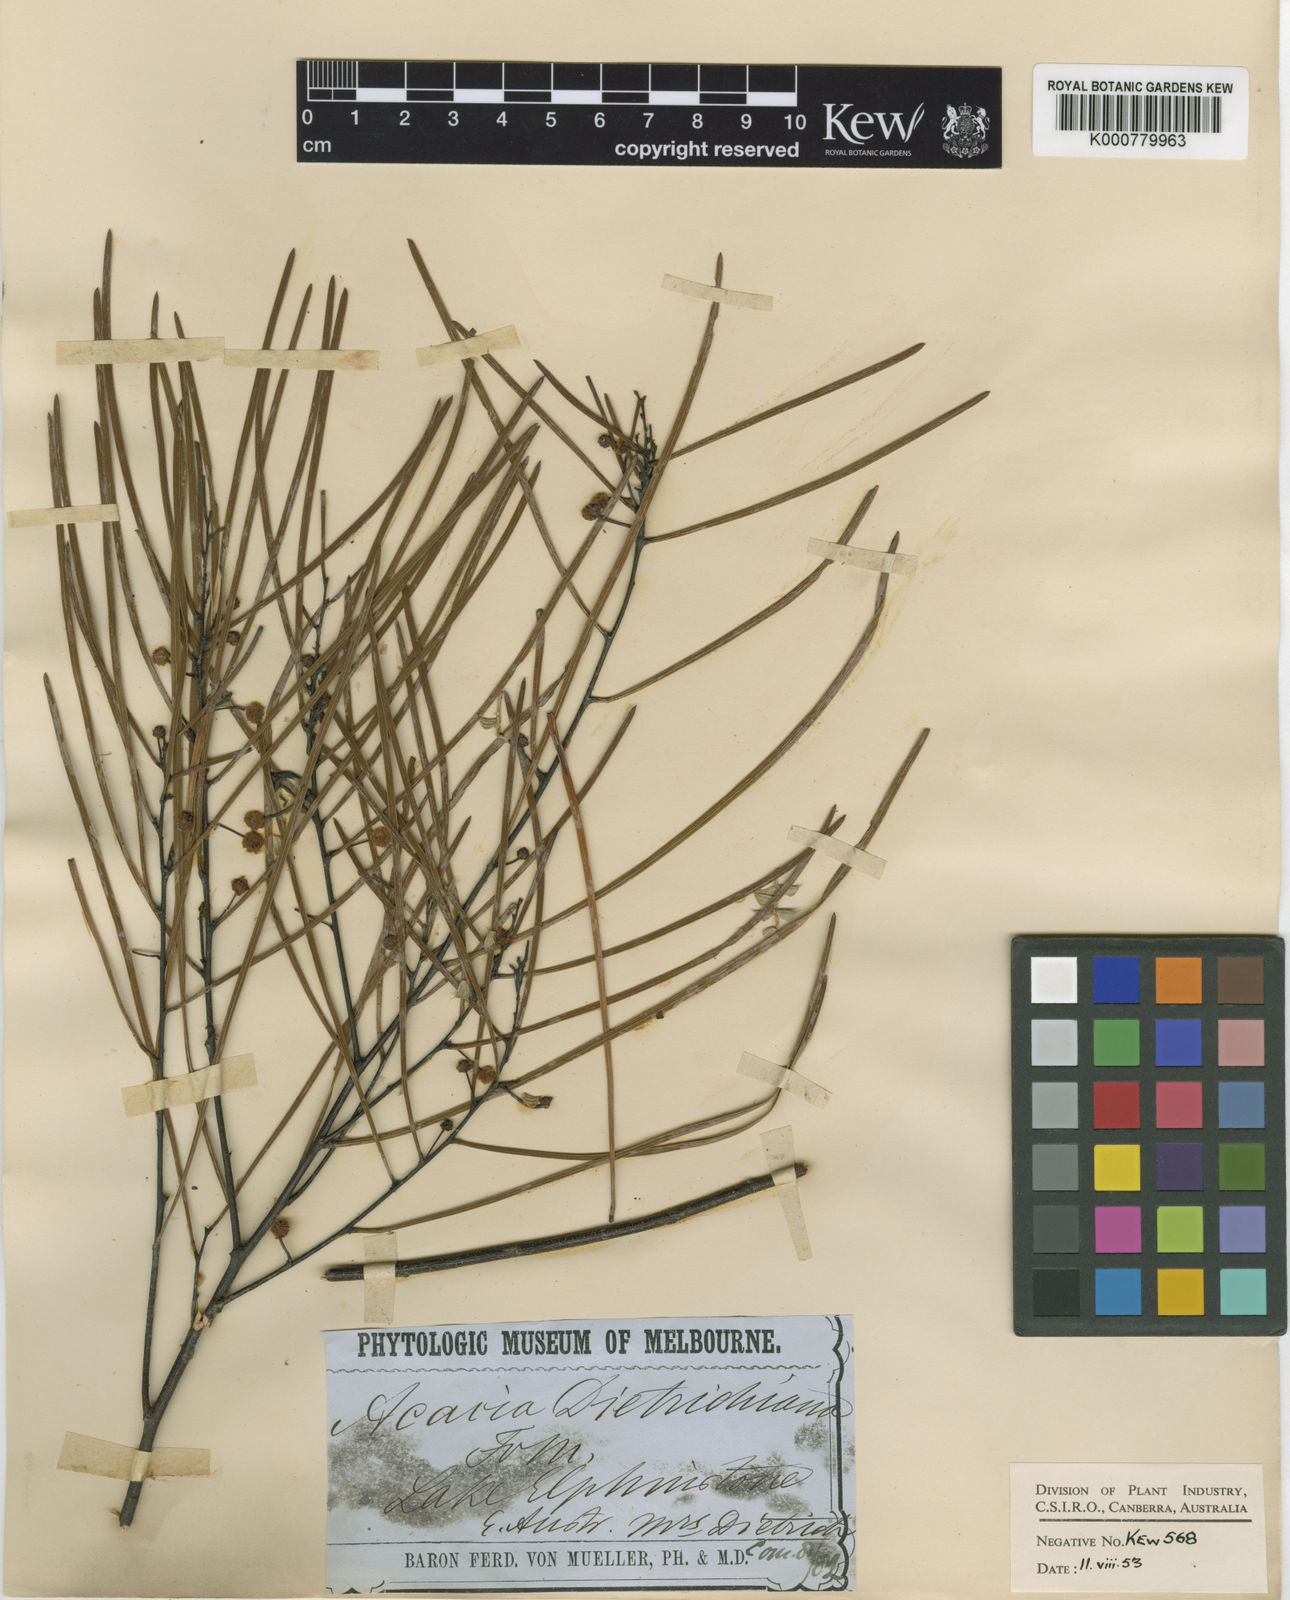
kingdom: Plantae
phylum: Tracheophyta
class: Magnoliopsida
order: Fabales
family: Fabaceae
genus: Acacia
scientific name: Acacia dietrichiana
